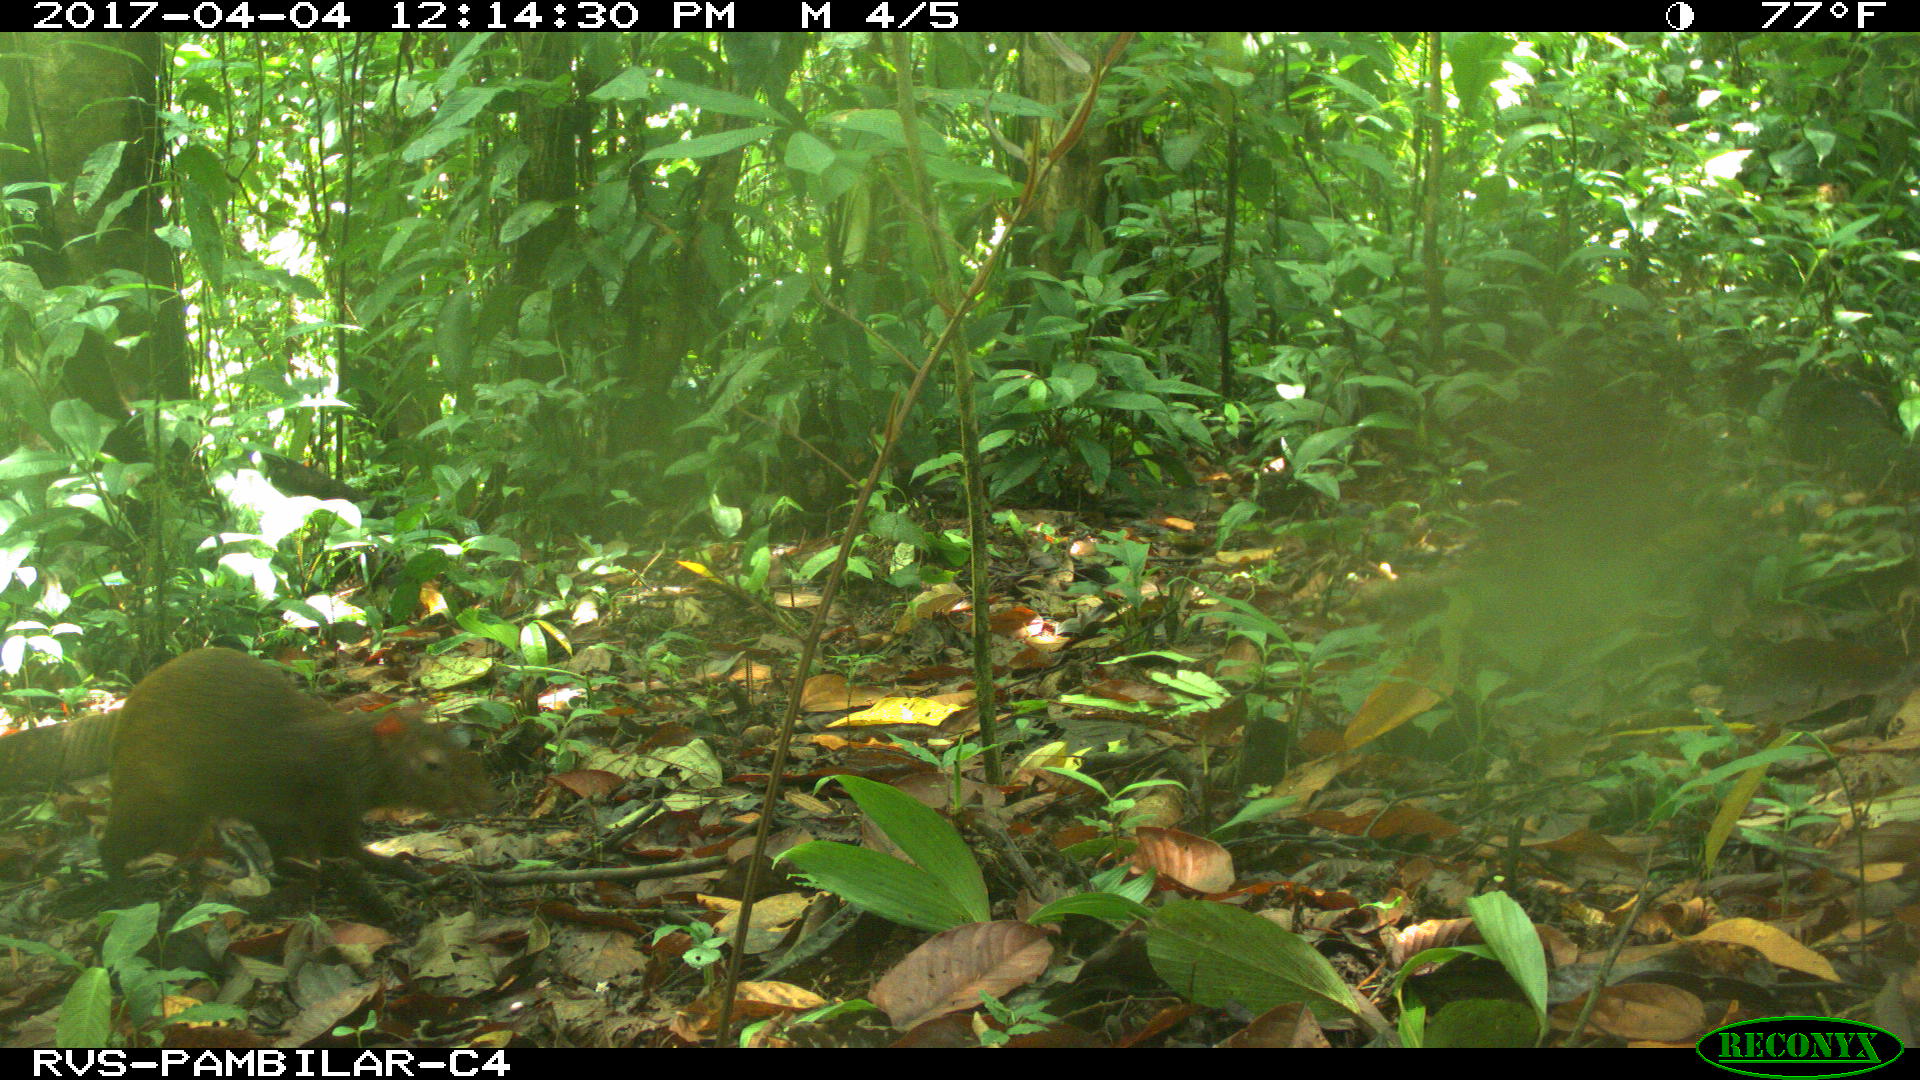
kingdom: Animalia
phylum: Chordata
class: Mammalia
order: Rodentia
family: Dasyproctidae
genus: Dasyprocta
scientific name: Dasyprocta punctata
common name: Central american agouti
